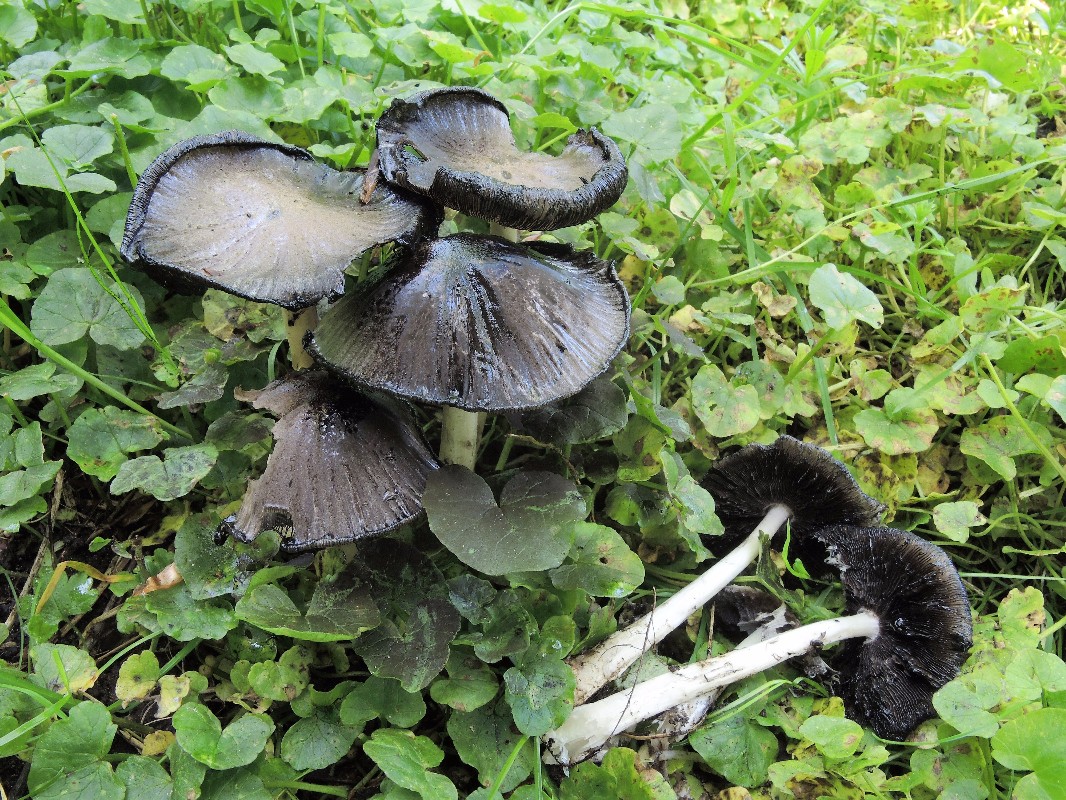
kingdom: Fungi
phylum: Basidiomycota
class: Agaricomycetes
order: Agaricales
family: Psathyrellaceae
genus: Coprinopsis
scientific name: Coprinopsis atramentaria
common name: almindelig blækhat
